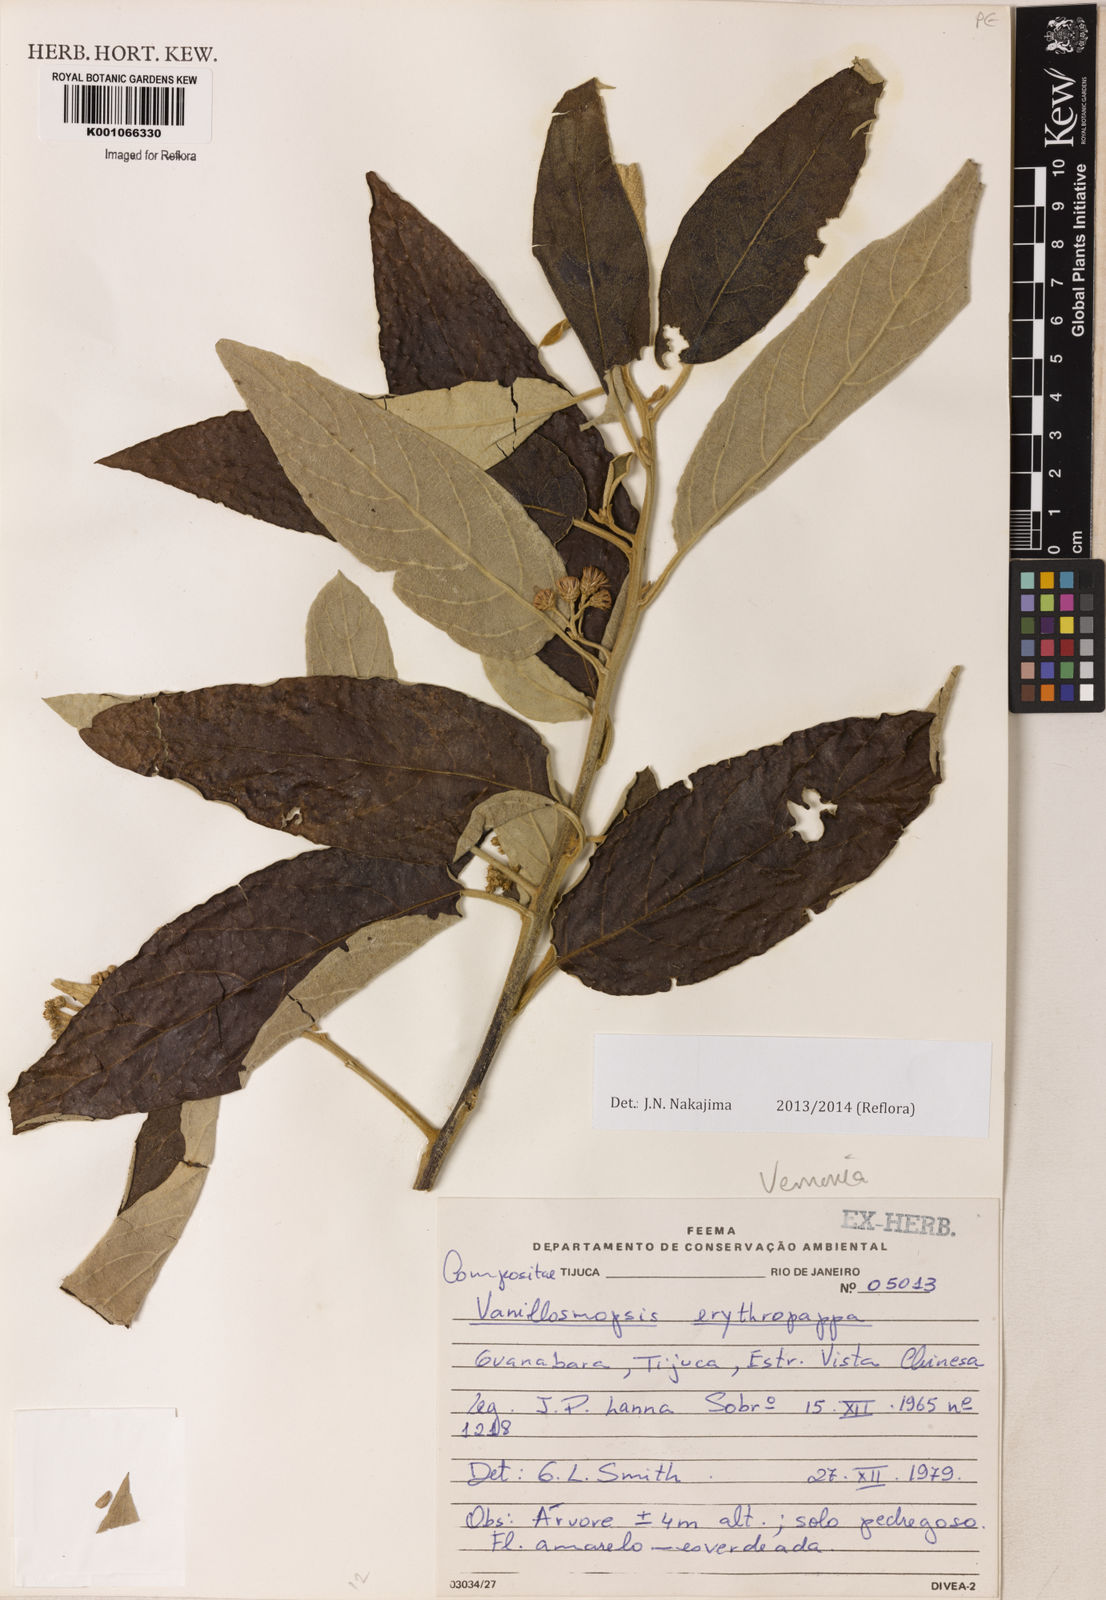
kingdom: Plantae
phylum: Tracheophyta
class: Magnoliopsida
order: Asterales
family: Asteraceae
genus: Gochnatia
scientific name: Gochnatia
